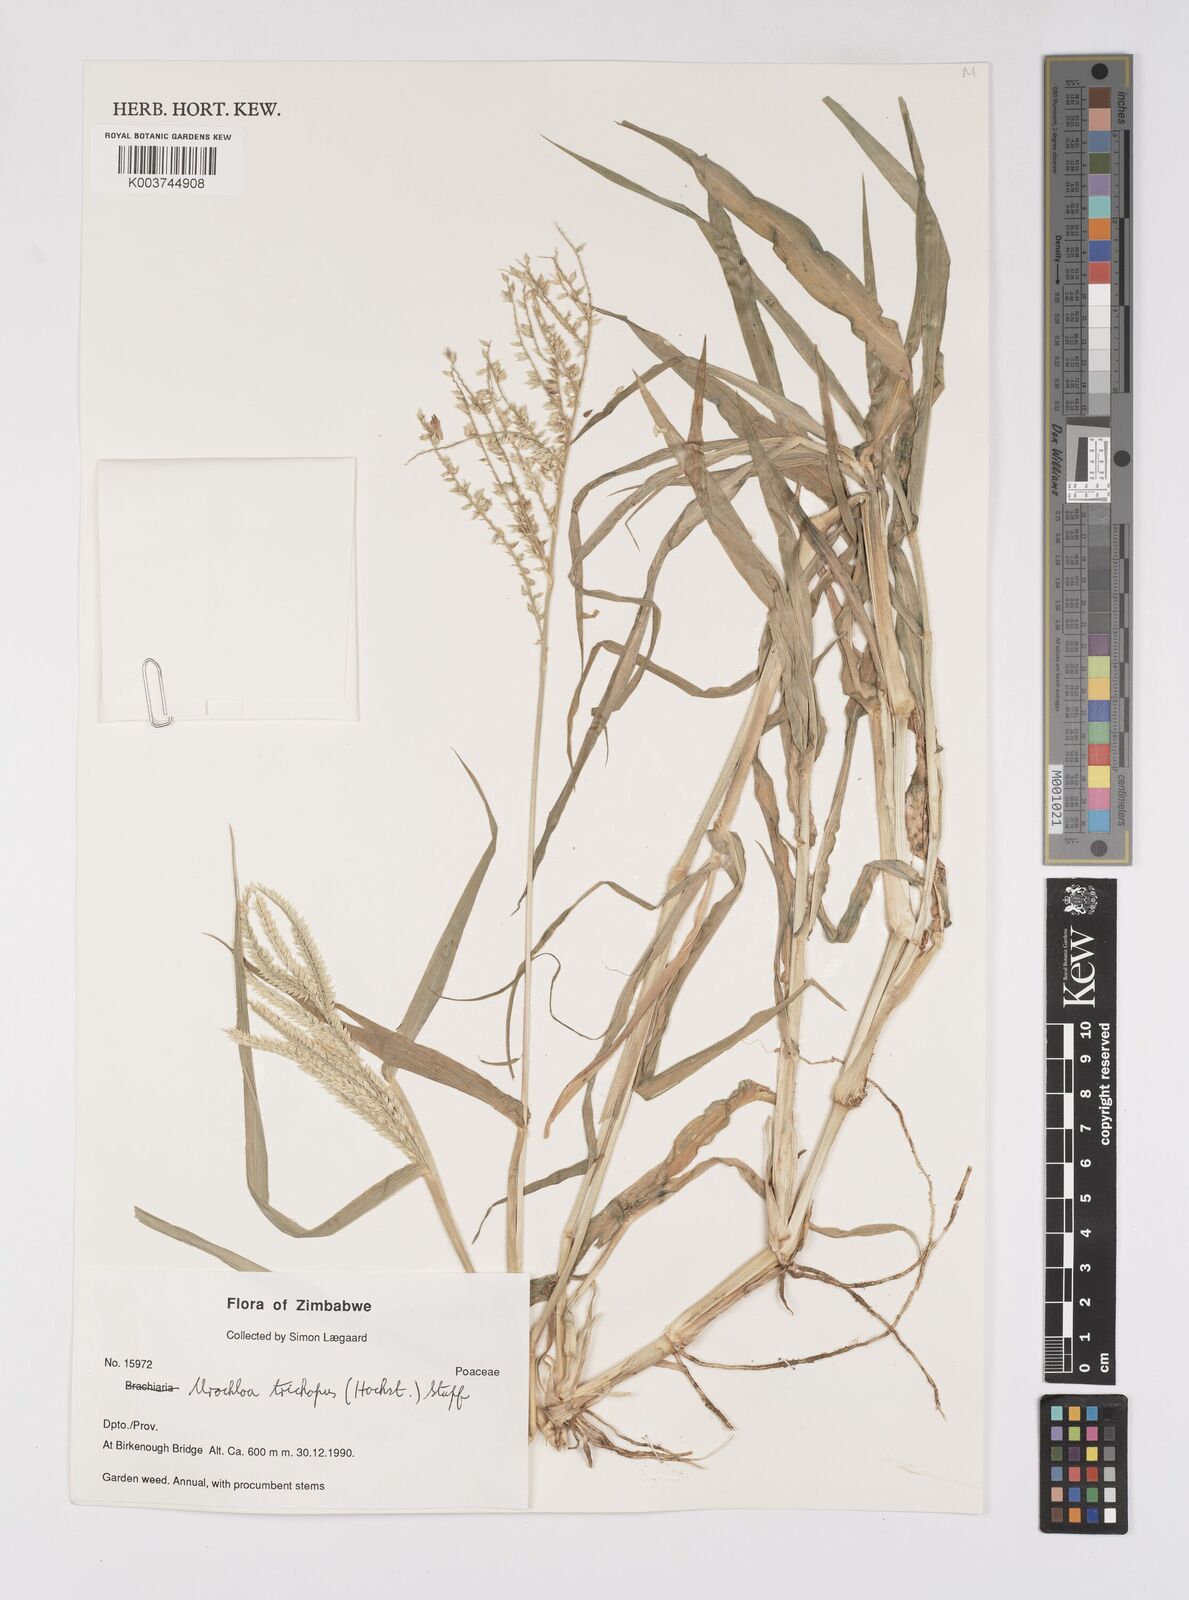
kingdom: Plantae
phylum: Tracheophyta
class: Liliopsida
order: Poales
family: Poaceae
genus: Urochloa
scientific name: Urochloa trichopus
